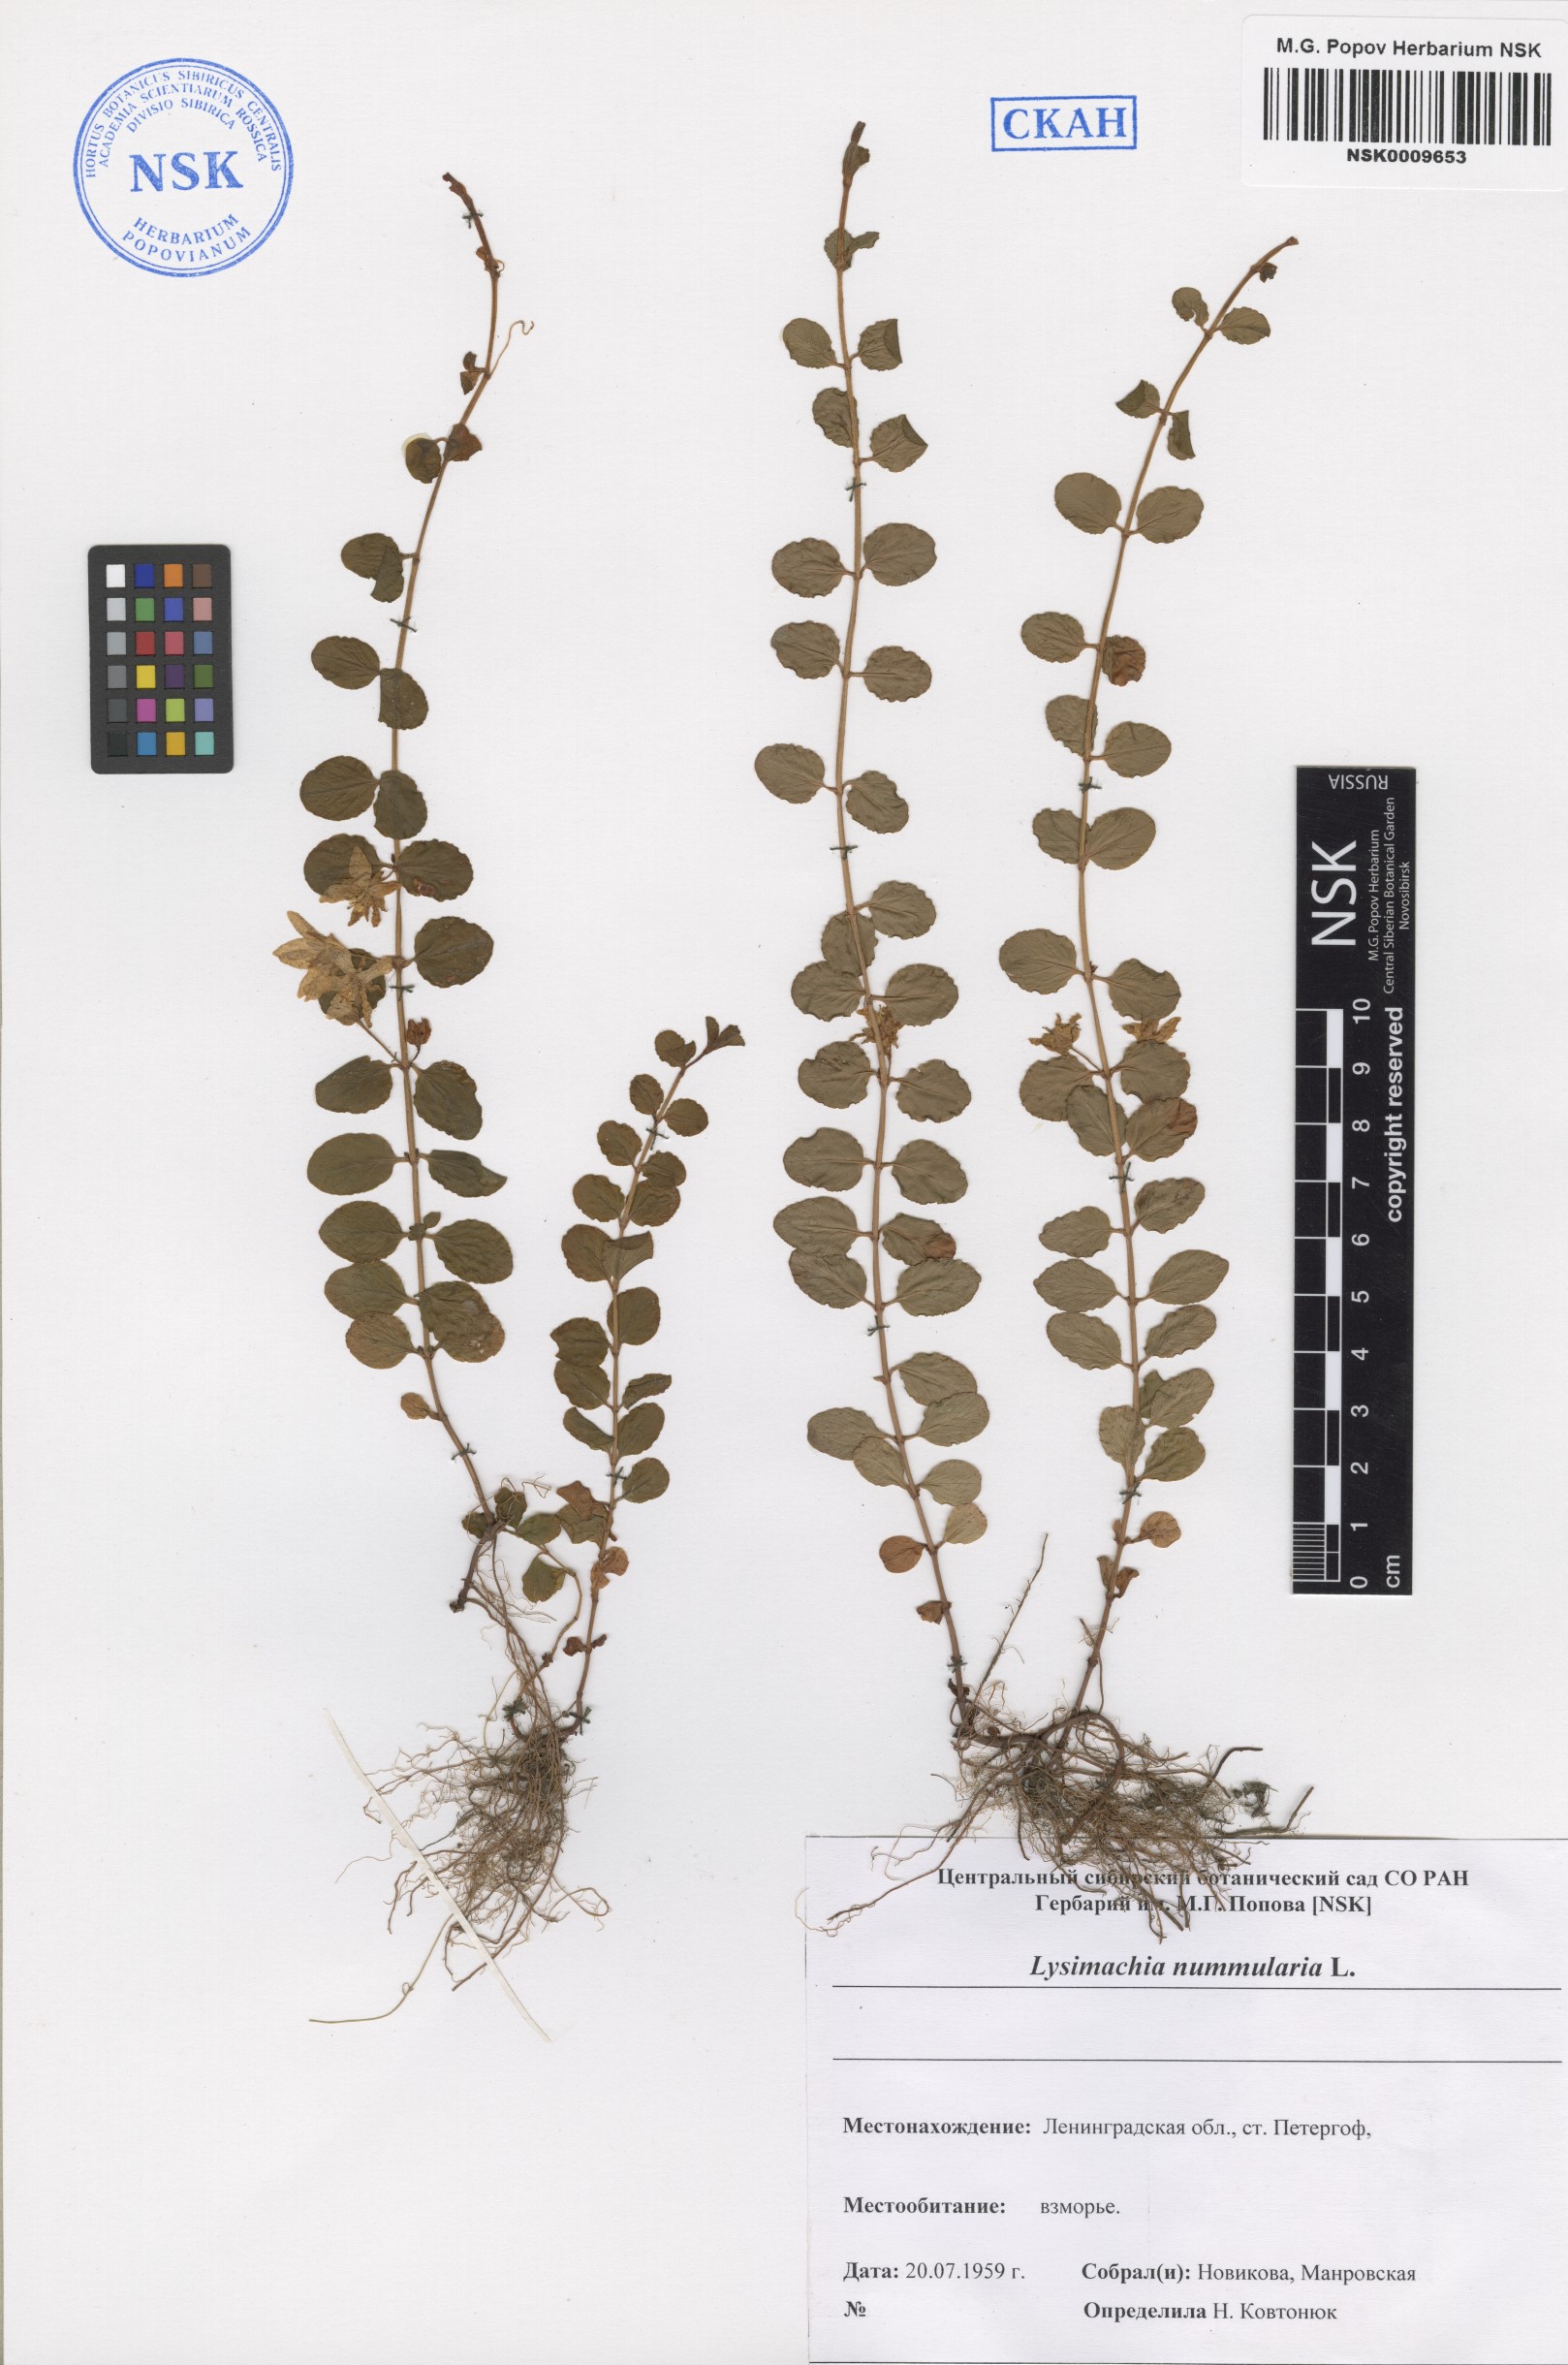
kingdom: Plantae
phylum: Tracheophyta
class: Magnoliopsida
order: Ericales
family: Primulaceae
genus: Lysimachia
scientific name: Lysimachia nummularia
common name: Moneywort
